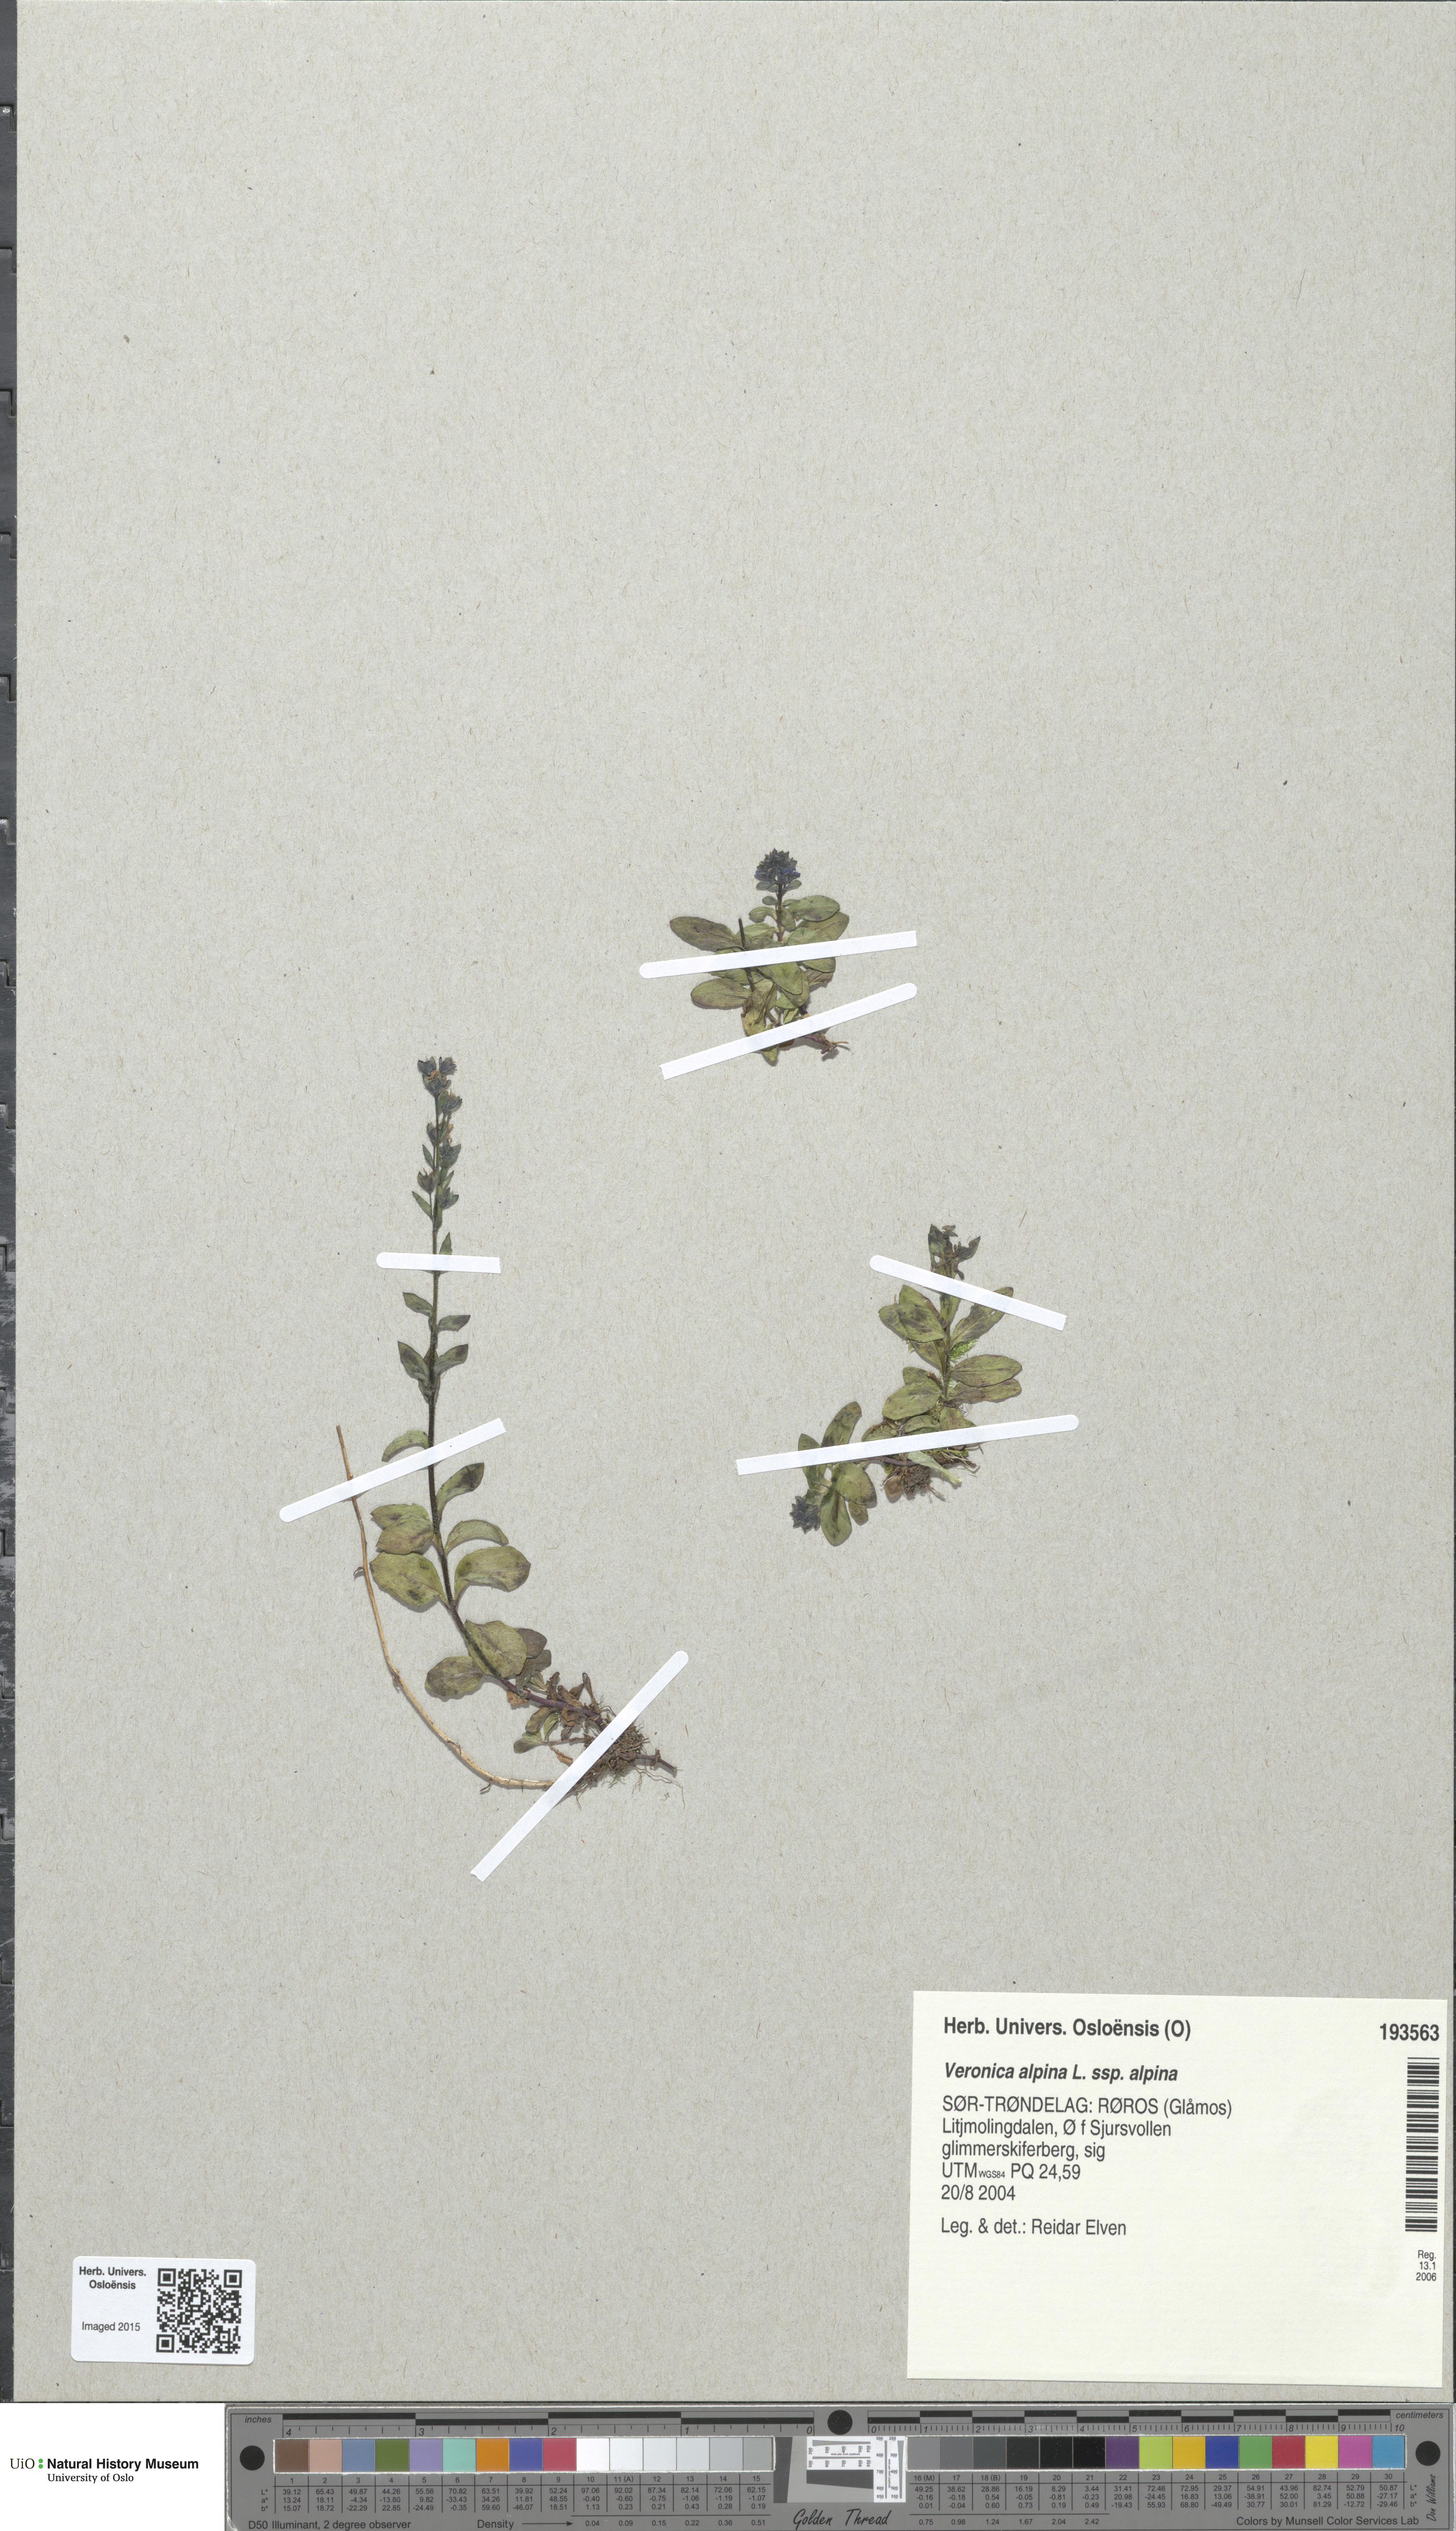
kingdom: Plantae
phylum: Tracheophyta
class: Magnoliopsida
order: Lamiales
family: Plantaginaceae
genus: Veronica
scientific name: Veronica alpina
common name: Alpine speedwell
